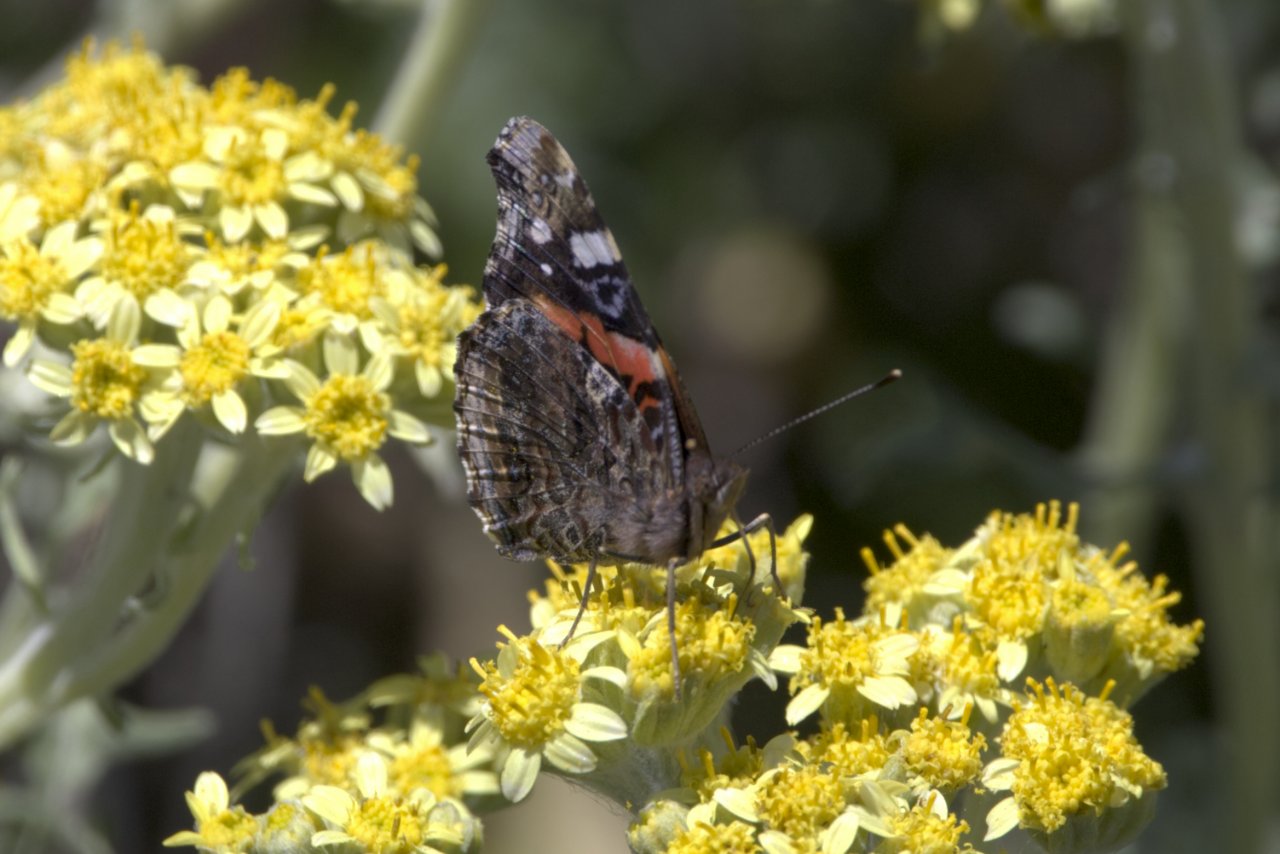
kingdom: Animalia
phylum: Arthropoda
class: Insecta
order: Lepidoptera
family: Nymphalidae
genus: Vanessa
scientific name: Vanessa atalanta
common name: Red Admiral
